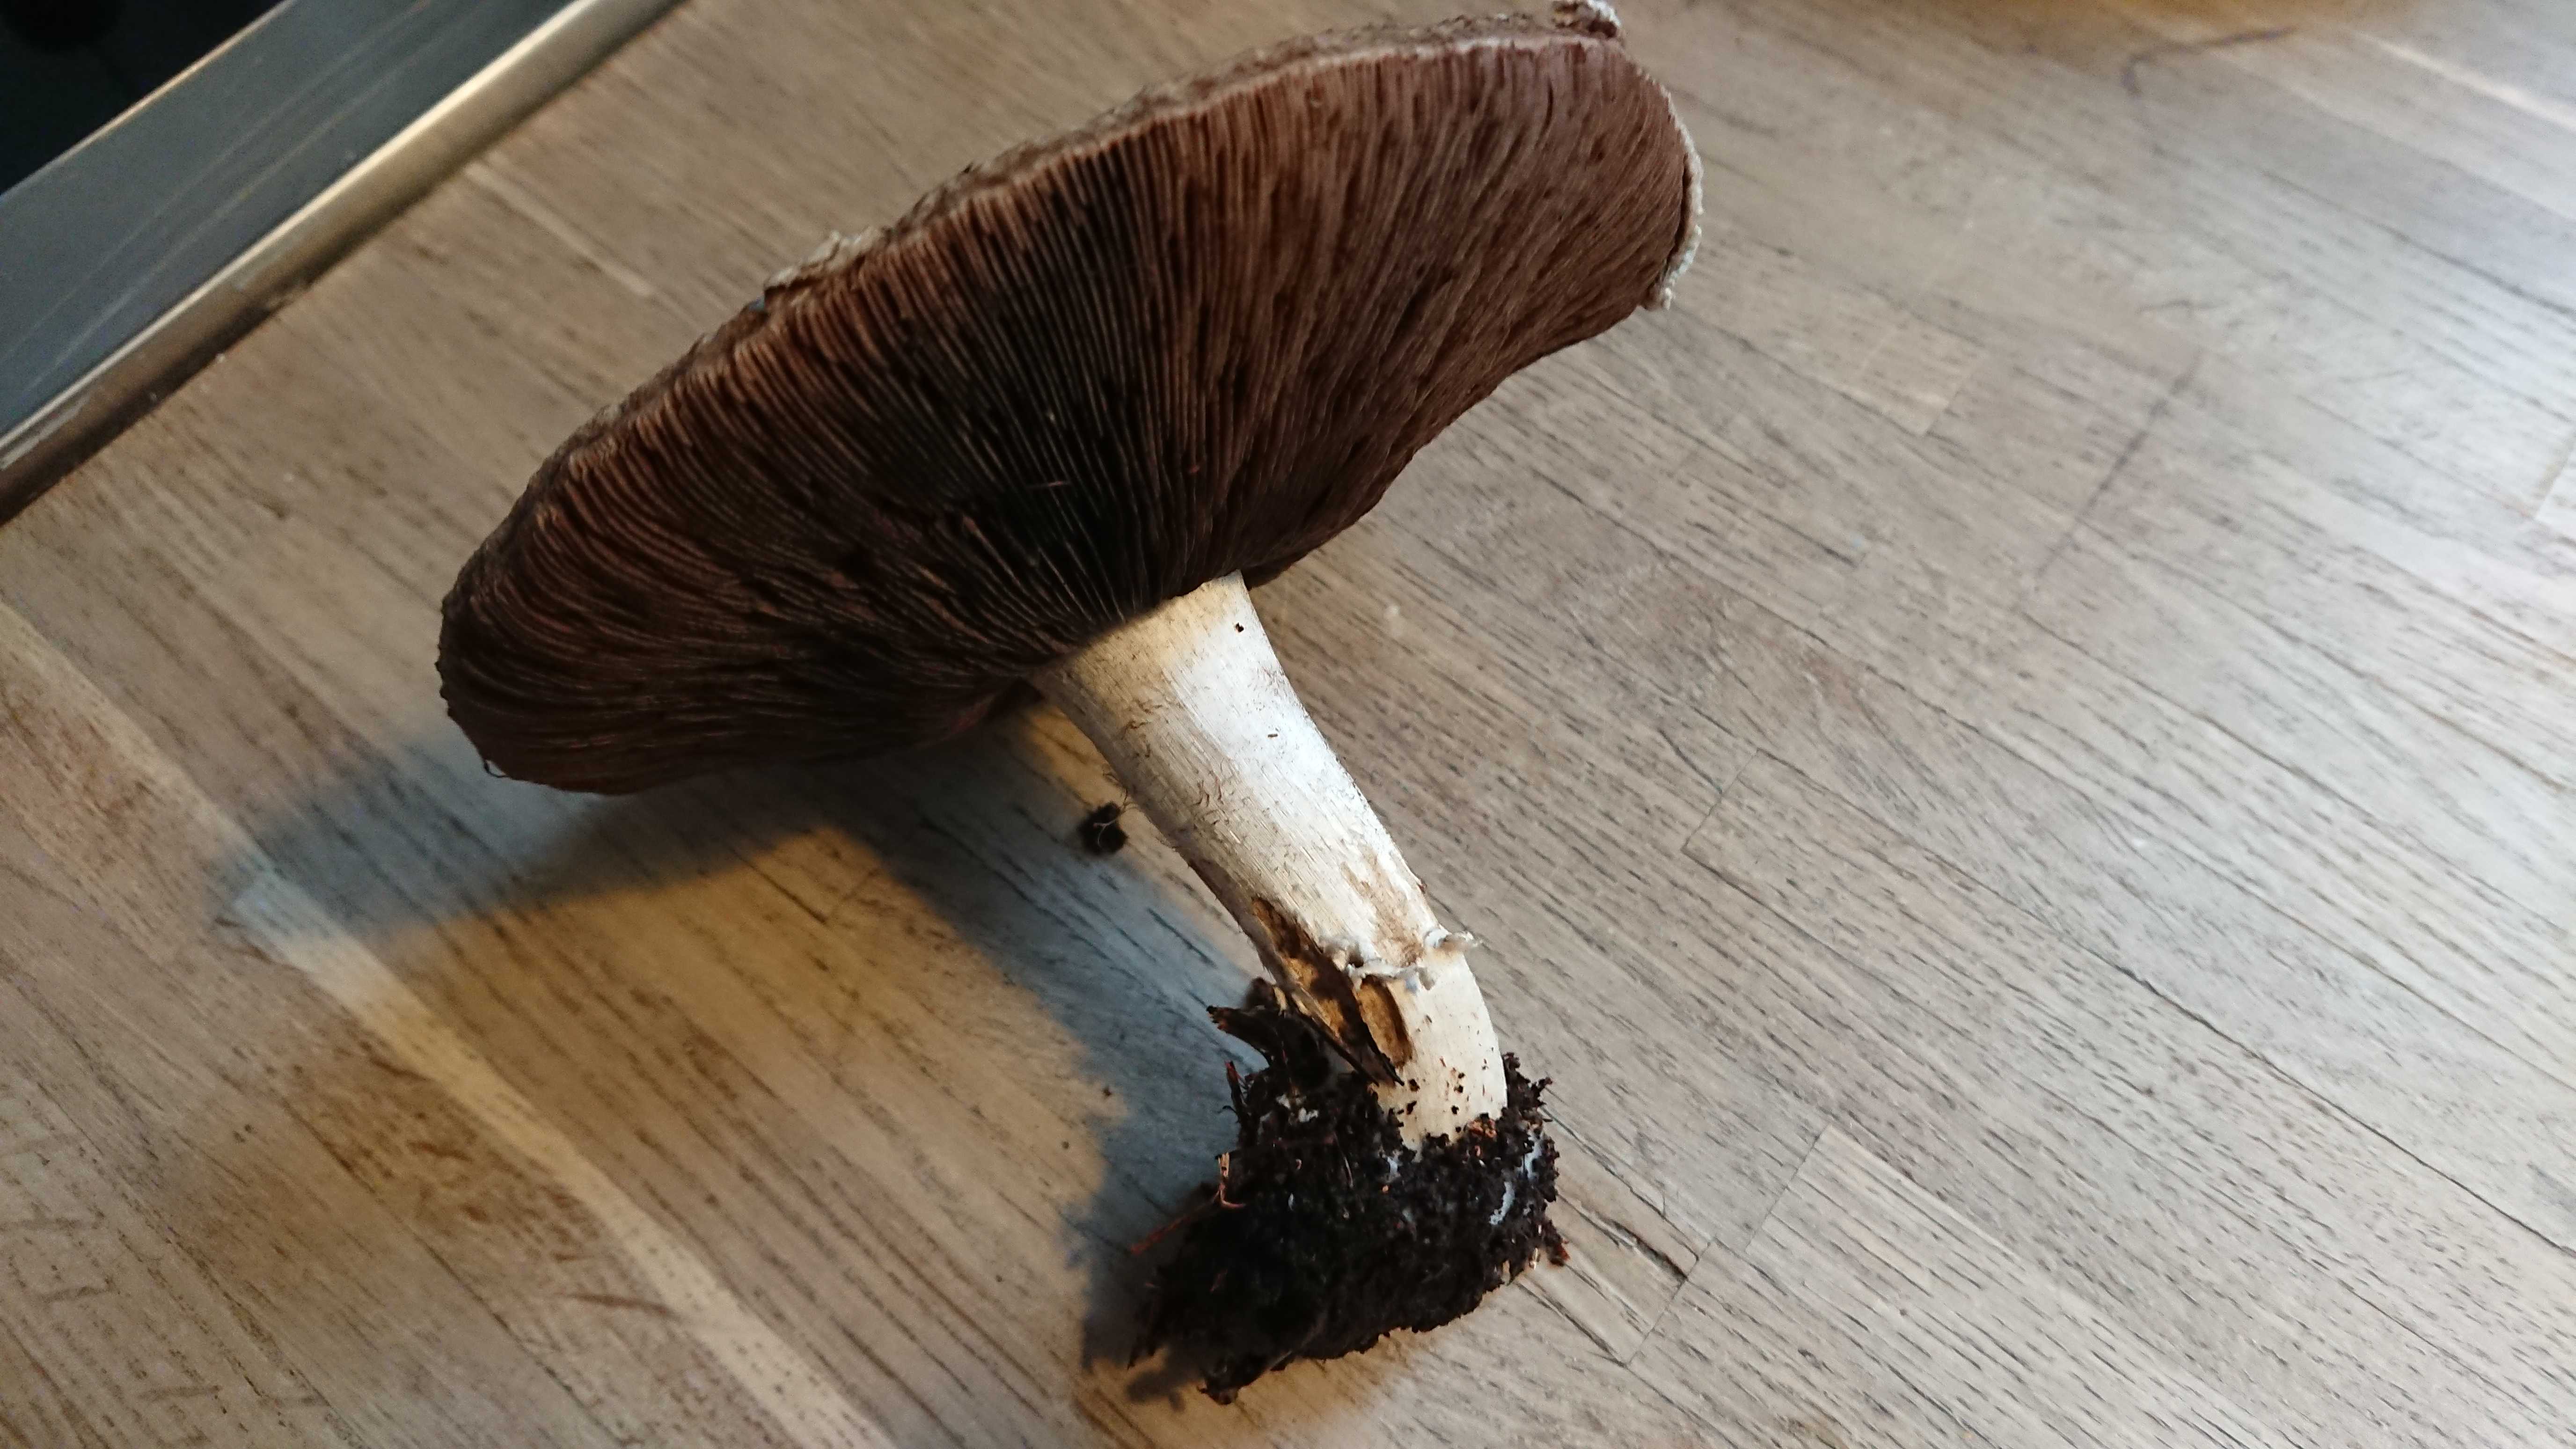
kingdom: Fungi
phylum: Basidiomycota
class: Agaricomycetes
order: Agaricales
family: Agaricaceae
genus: Agaricus
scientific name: Agaricus
